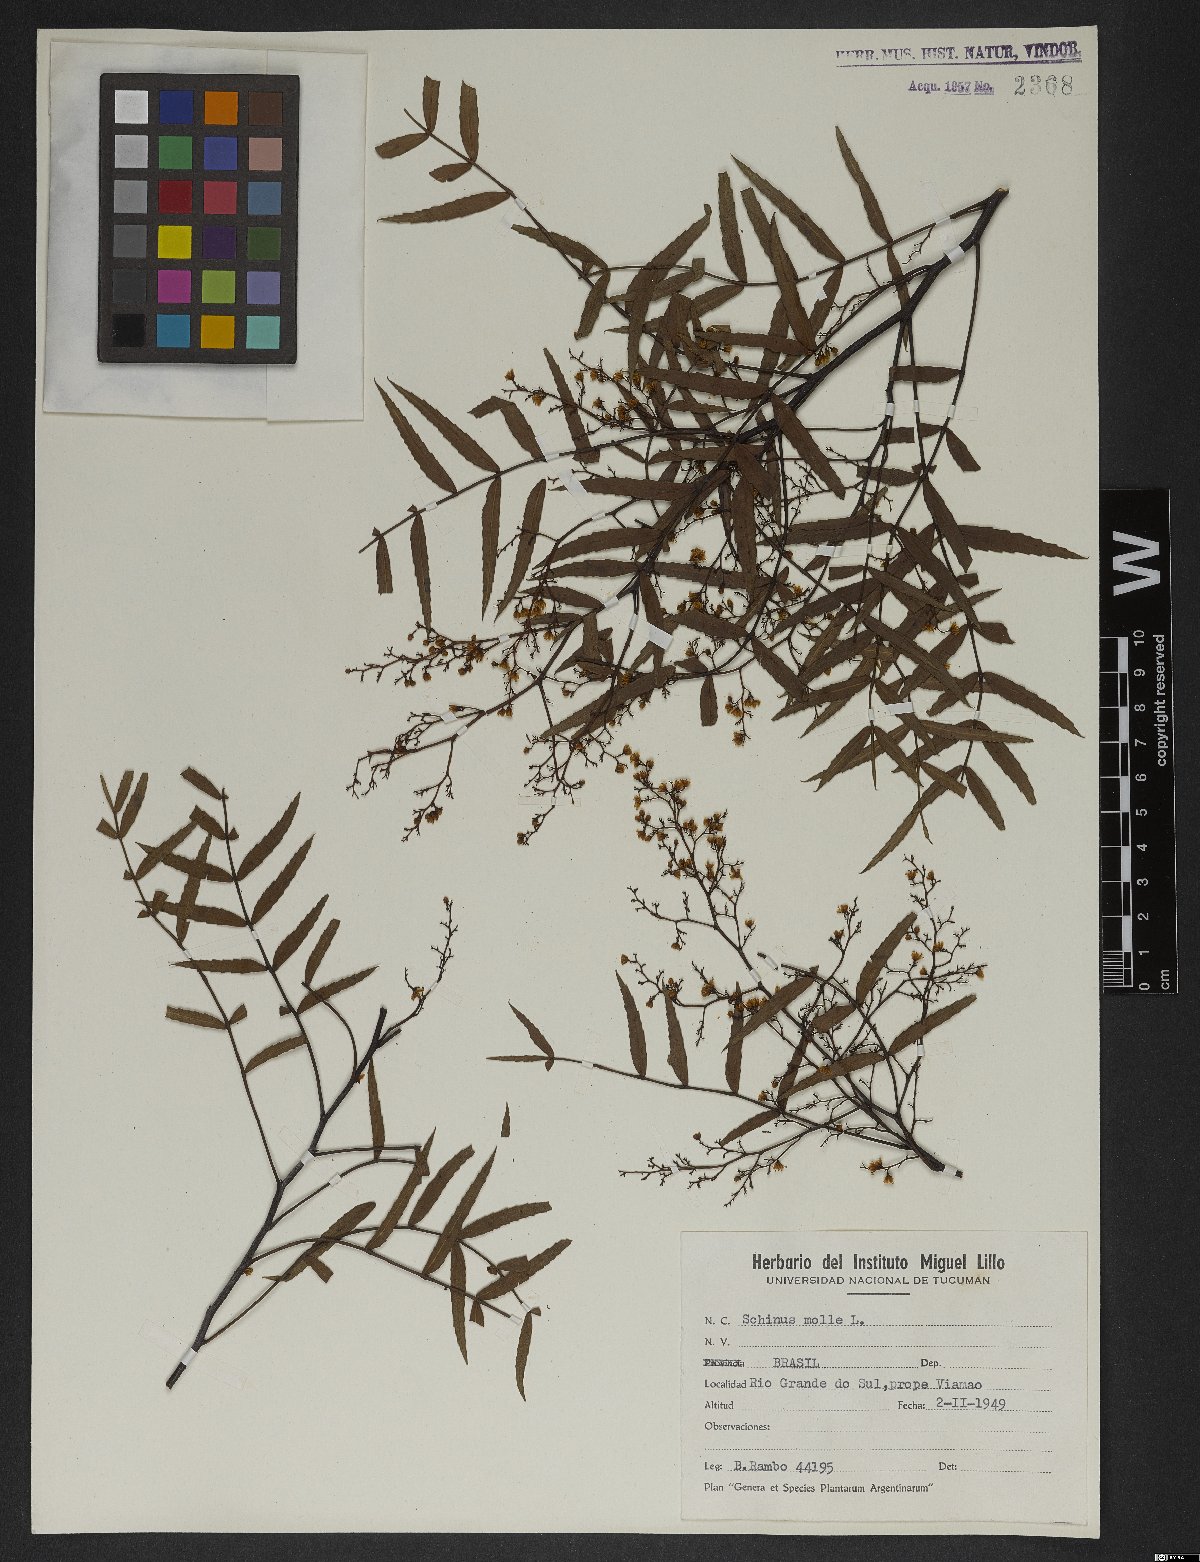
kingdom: Plantae
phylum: Tracheophyta
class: Magnoliopsida
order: Sapindales
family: Anacardiaceae
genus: Schinus
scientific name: Schinus molle
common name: Peruvian peppertree
